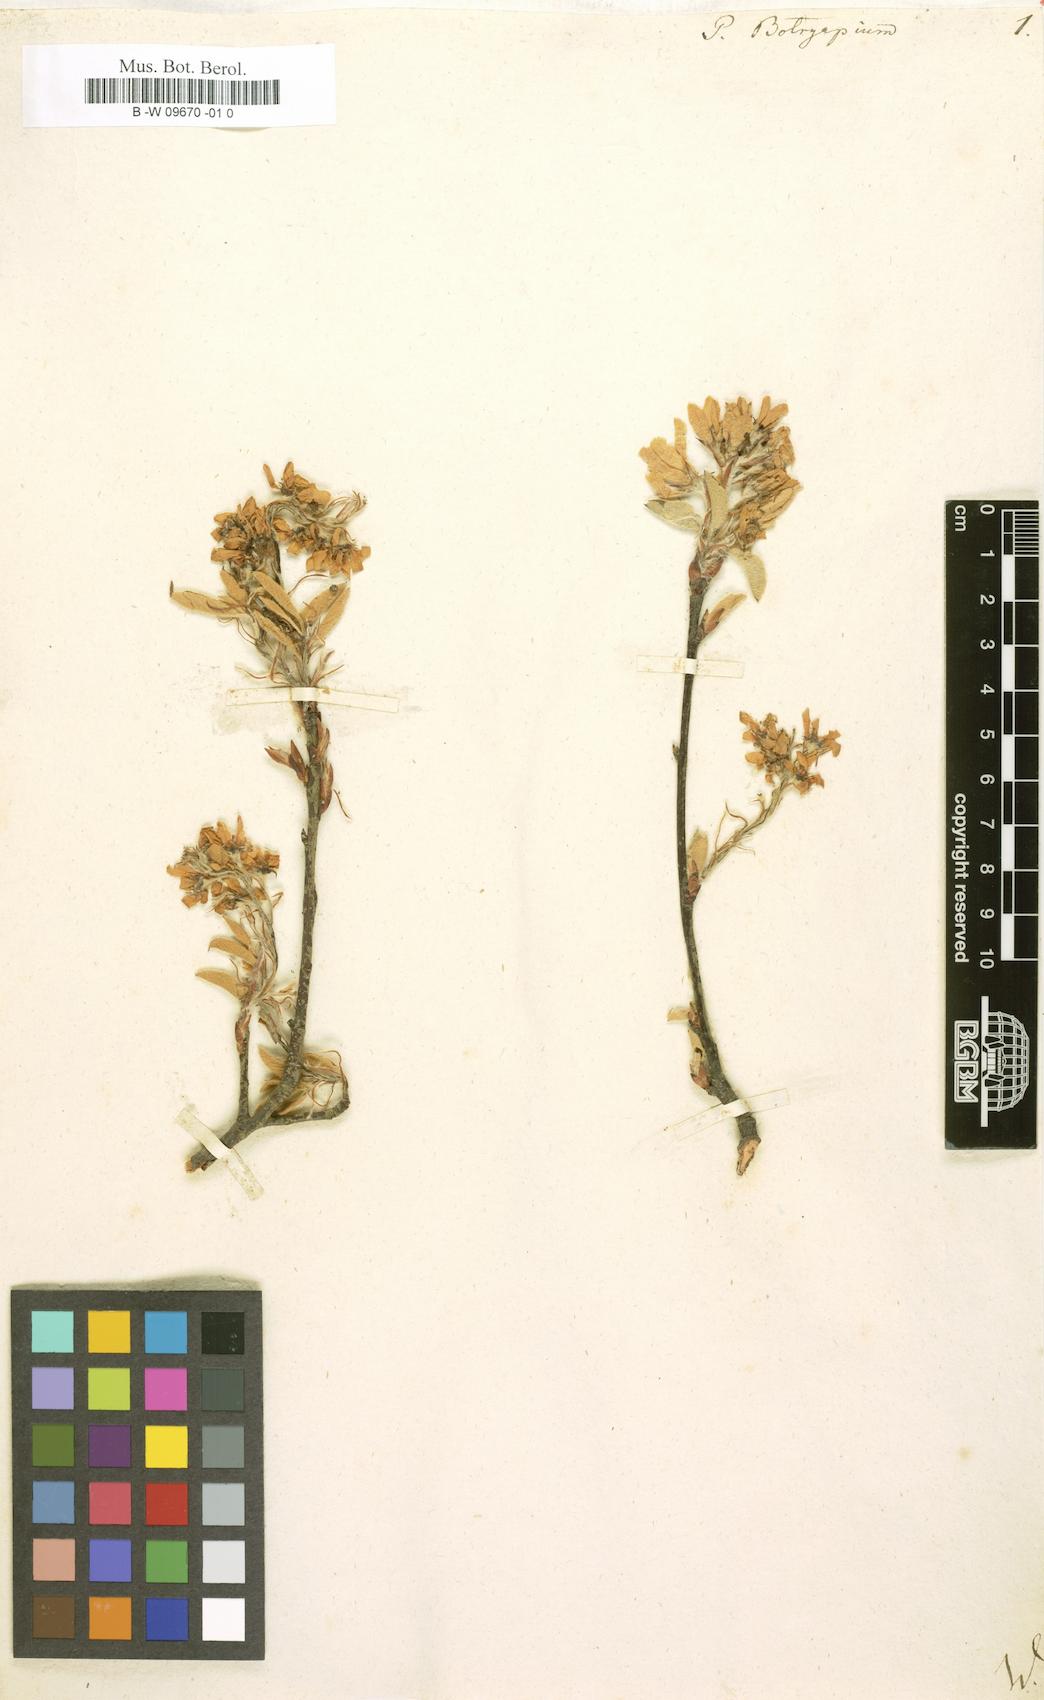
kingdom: Plantae
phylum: Tracheophyta
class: Magnoliopsida
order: Rosales
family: Rosaceae
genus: Amelanchier
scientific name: Amelanchier
